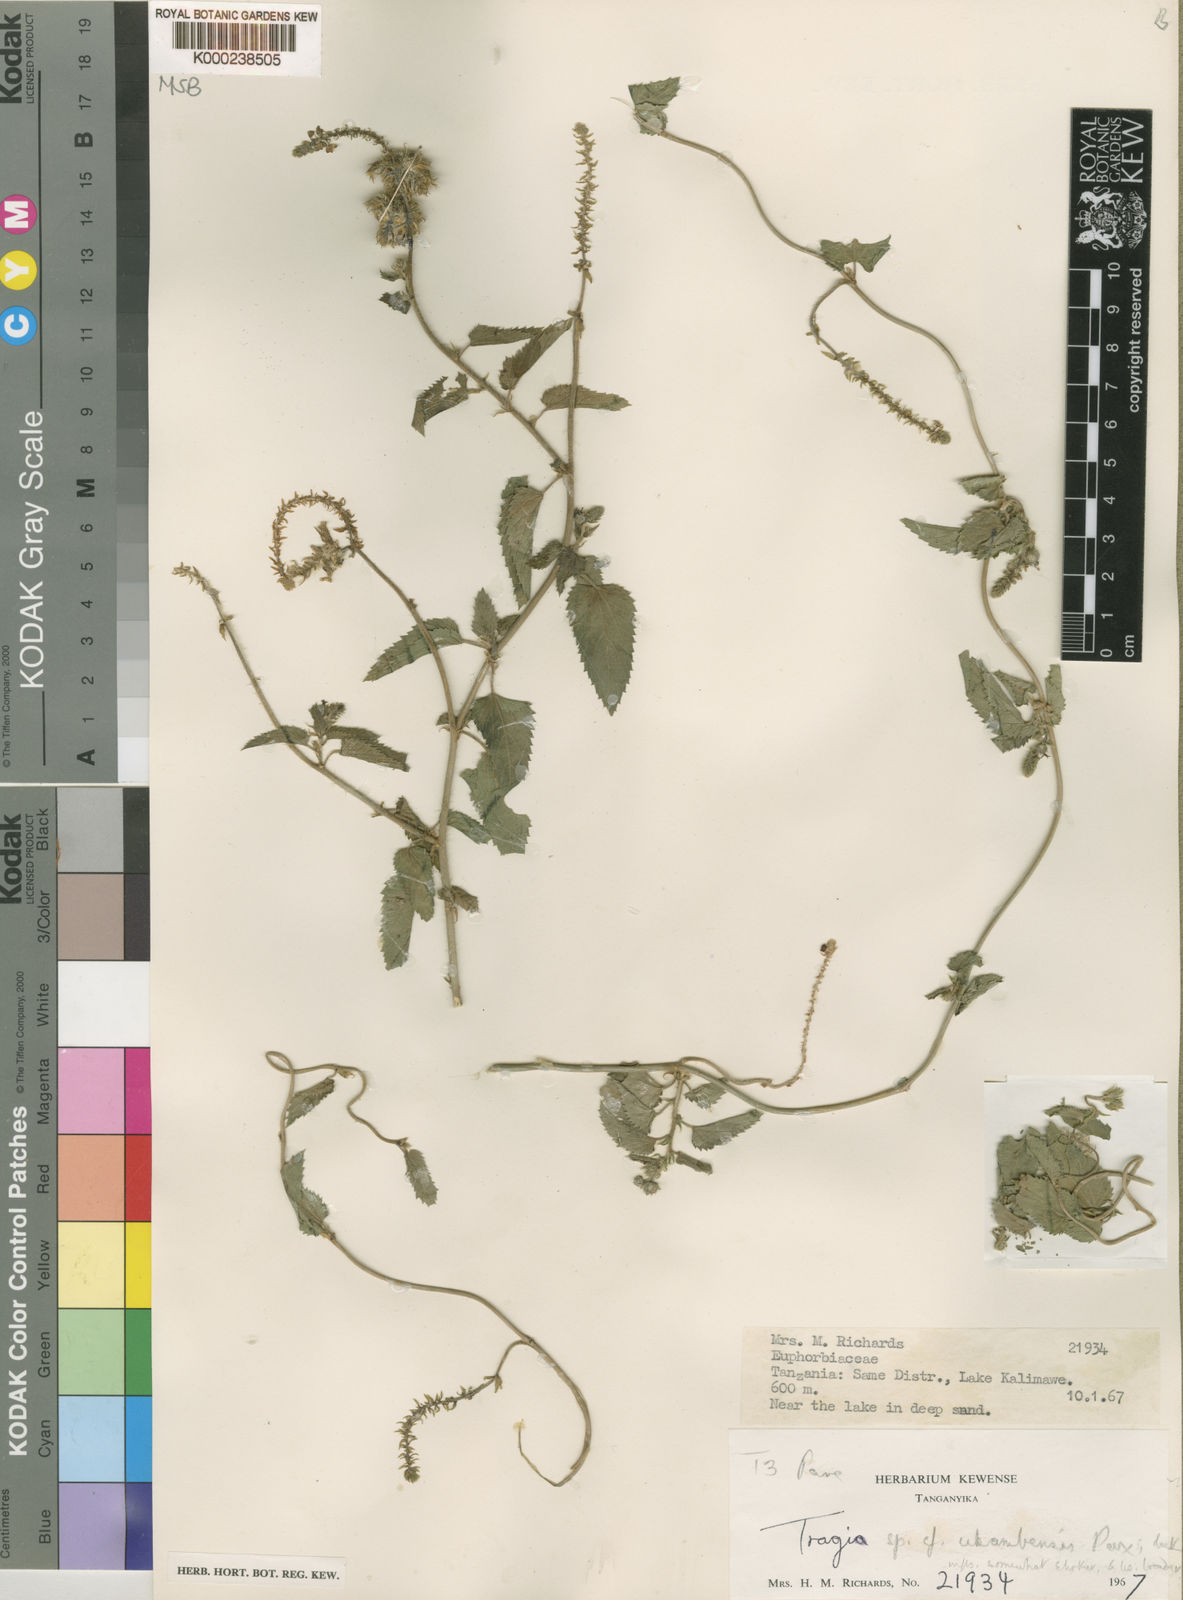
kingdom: Plantae
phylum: Tracheophyta
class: Magnoliopsida
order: Malpighiales
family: Euphorbiaceae
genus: Tragia
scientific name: Tragia ukambensis
